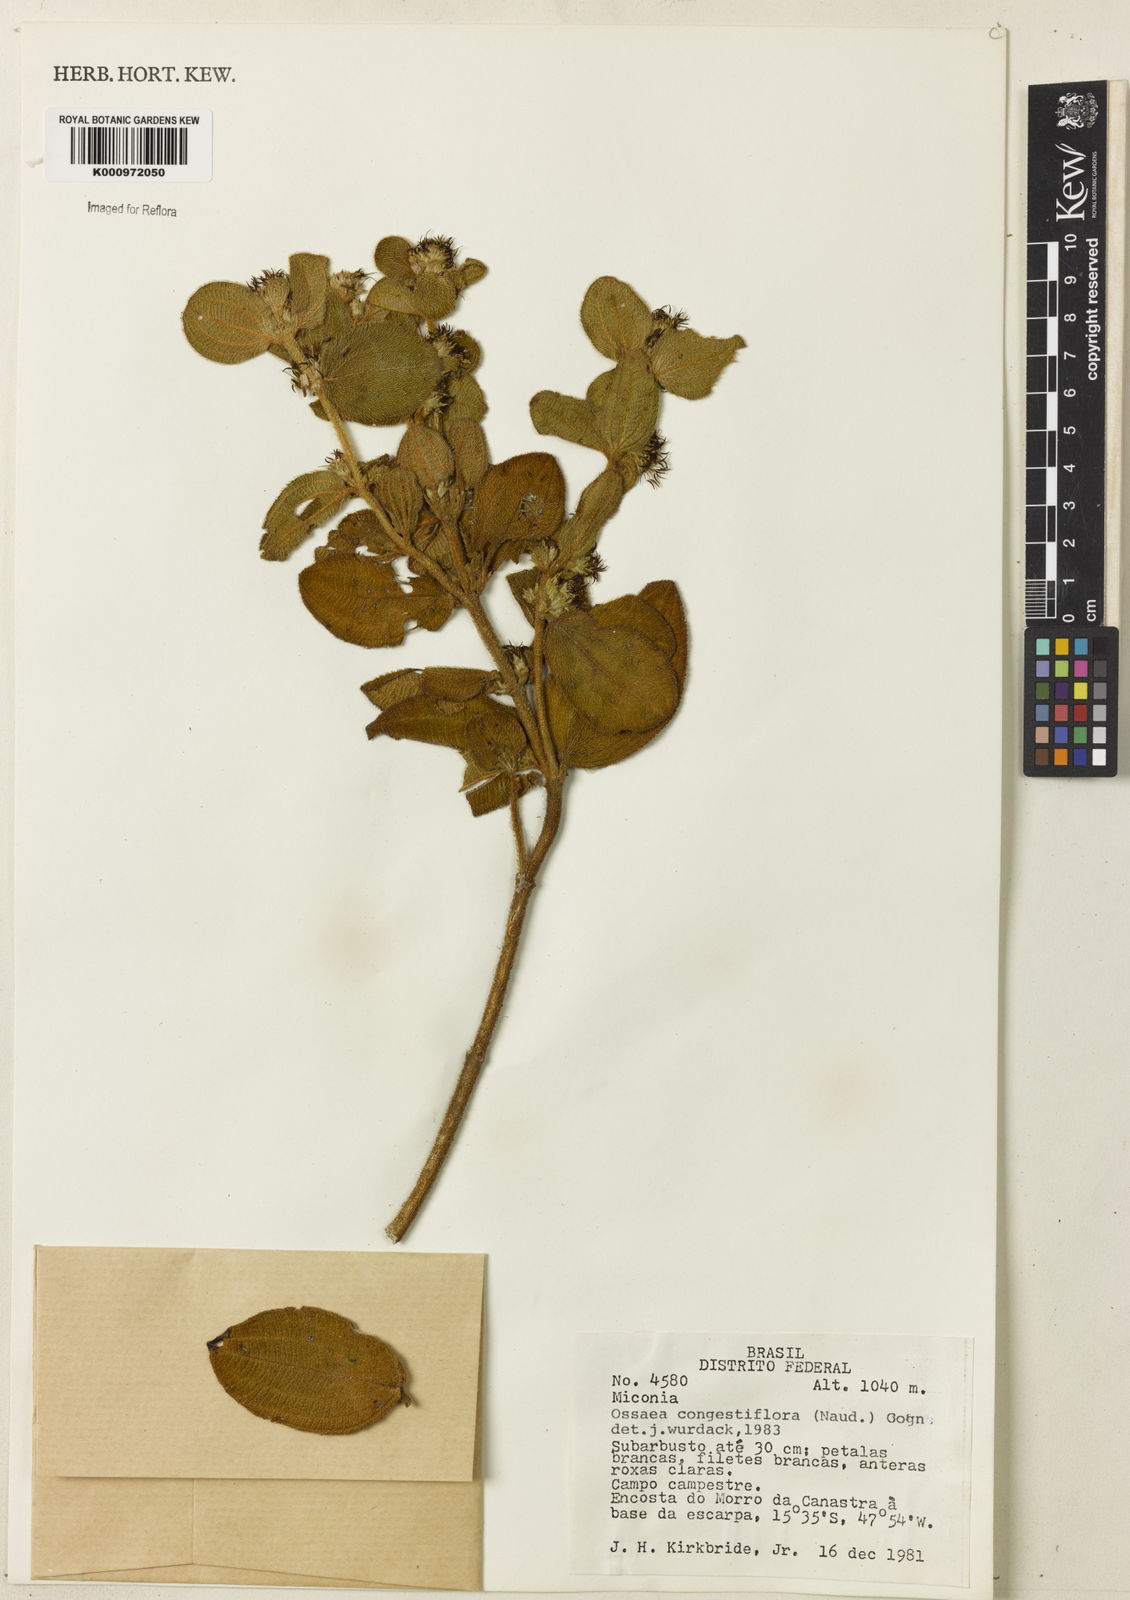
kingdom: Plantae
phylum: Tracheophyta
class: Magnoliopsida
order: Myrtales
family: Melastomataceae
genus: Miconia
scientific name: Miconia leacongestiflora
